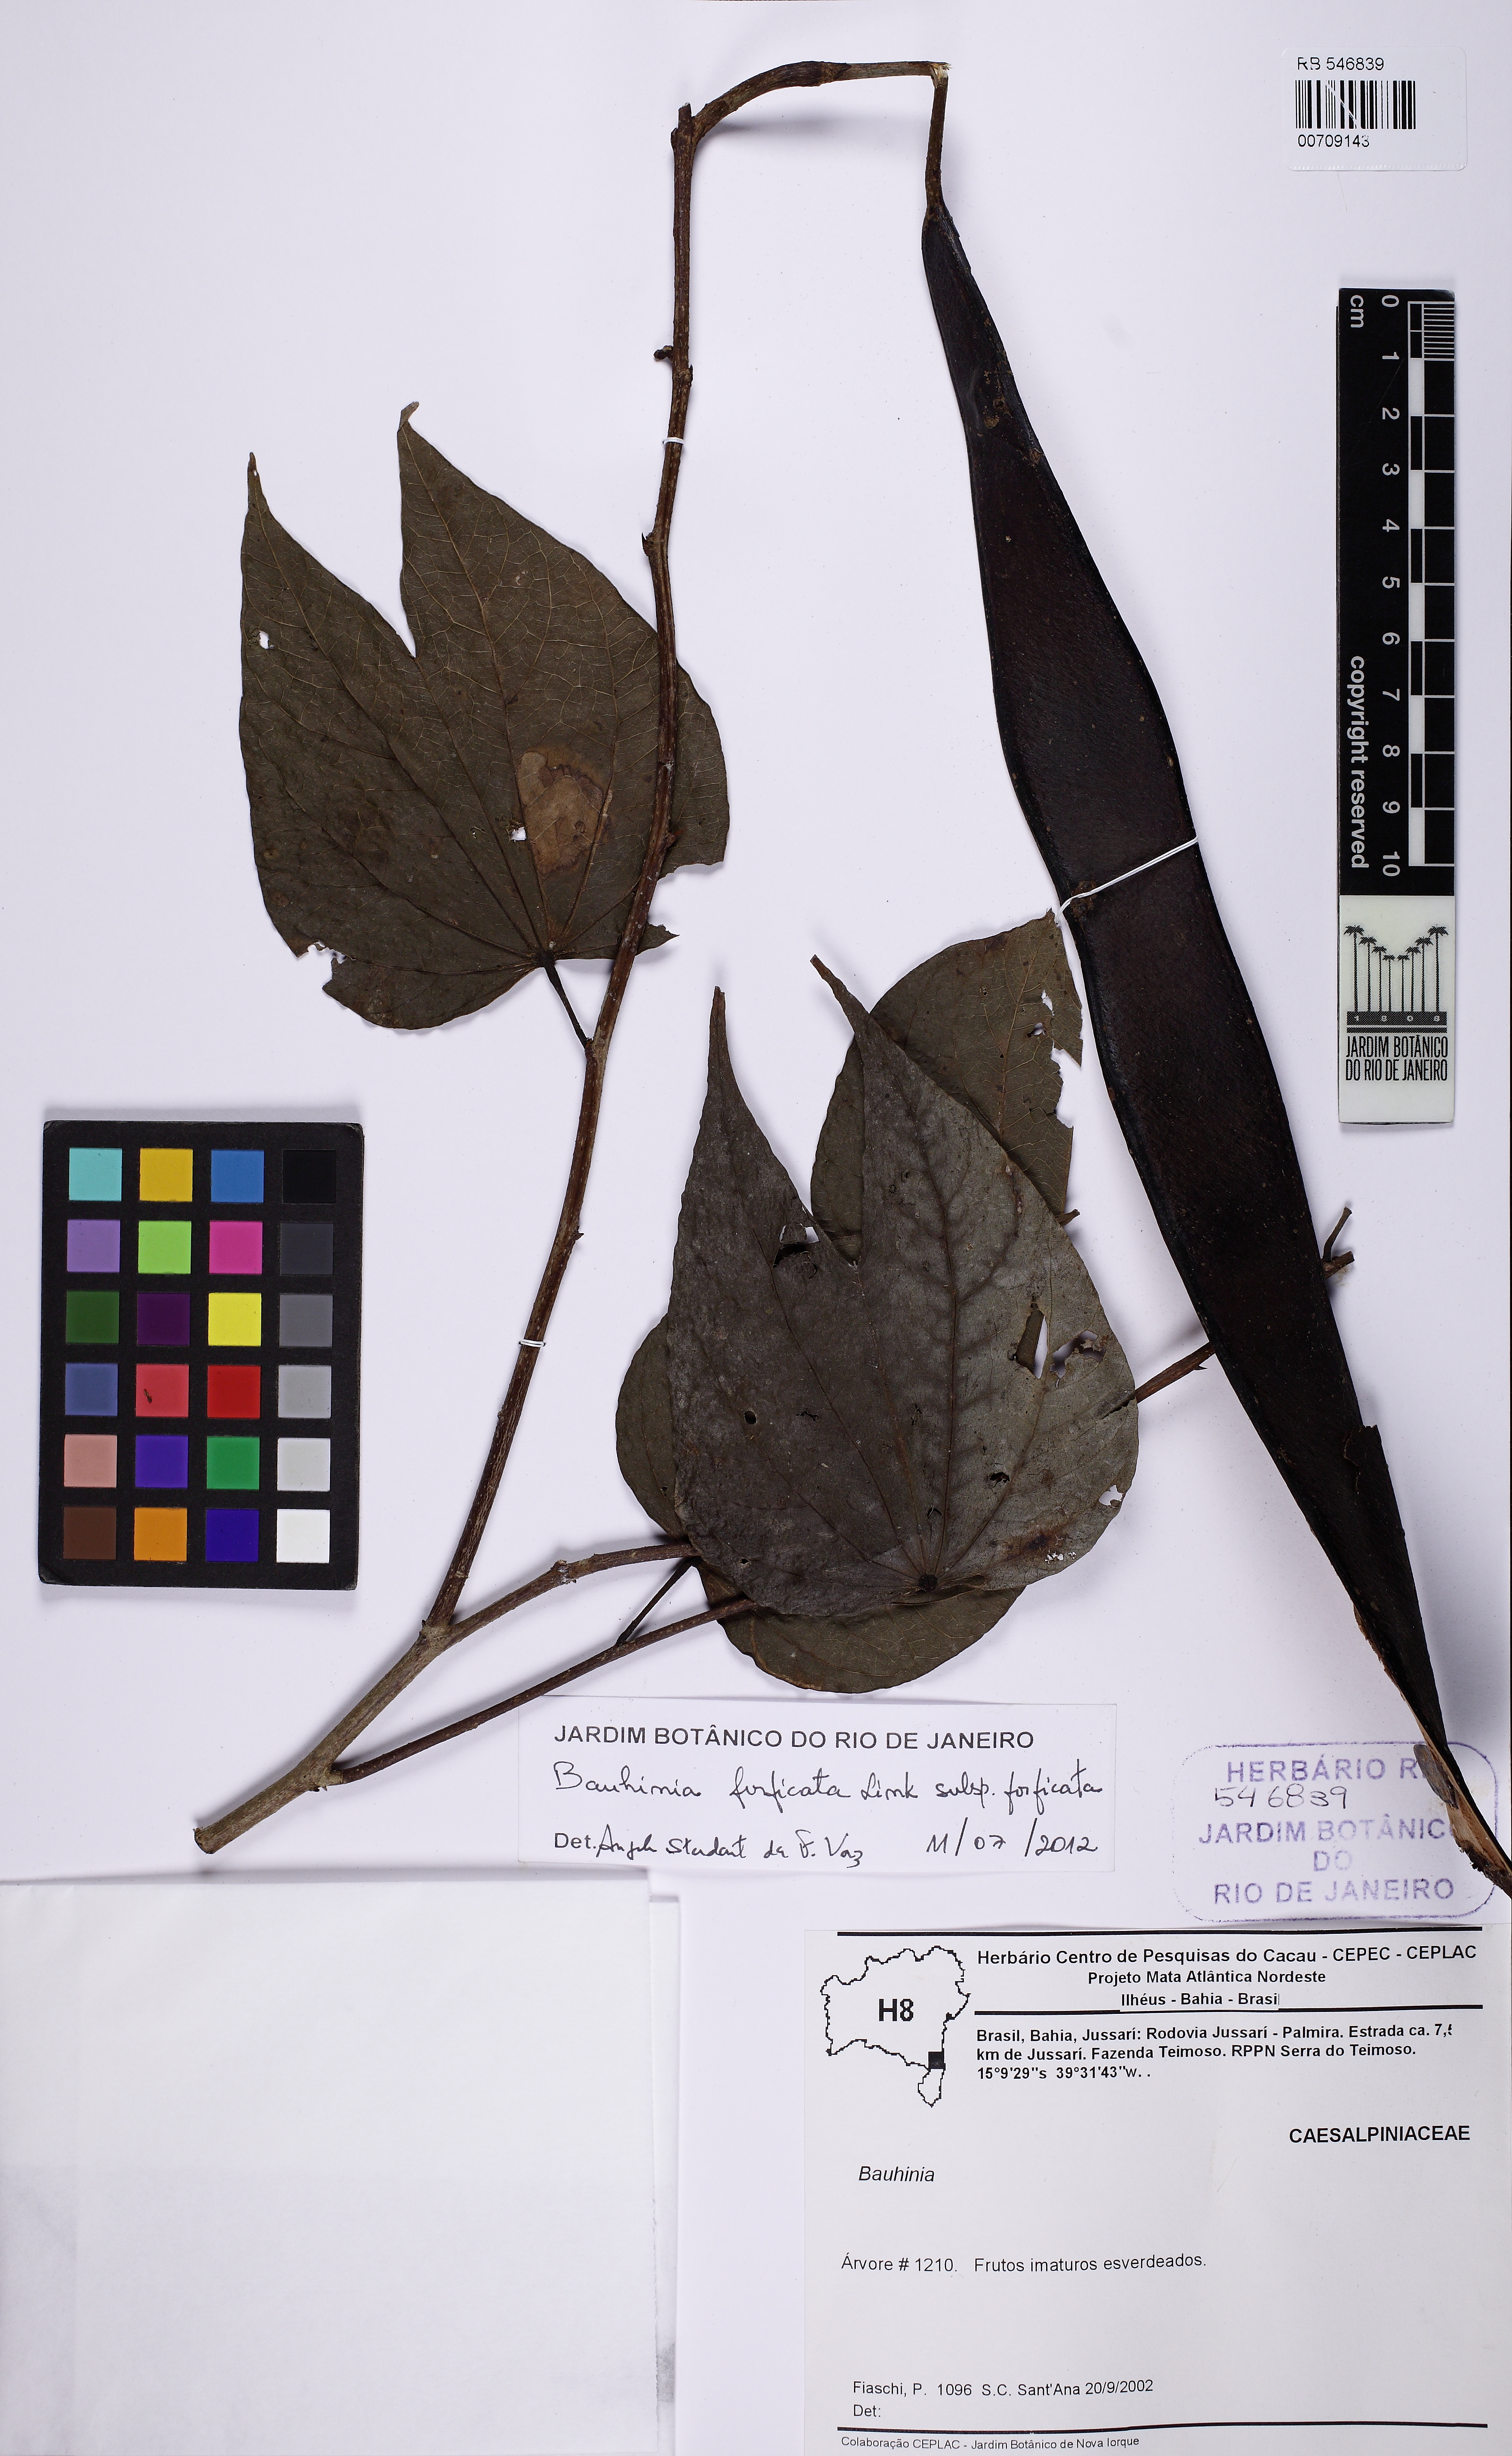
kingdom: Plantae
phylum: Tracheophyta
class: Magnoliopsida
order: Fabales
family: Fabaceae
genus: Bauhinia
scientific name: Bauhinia forficata
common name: Orchid tree
